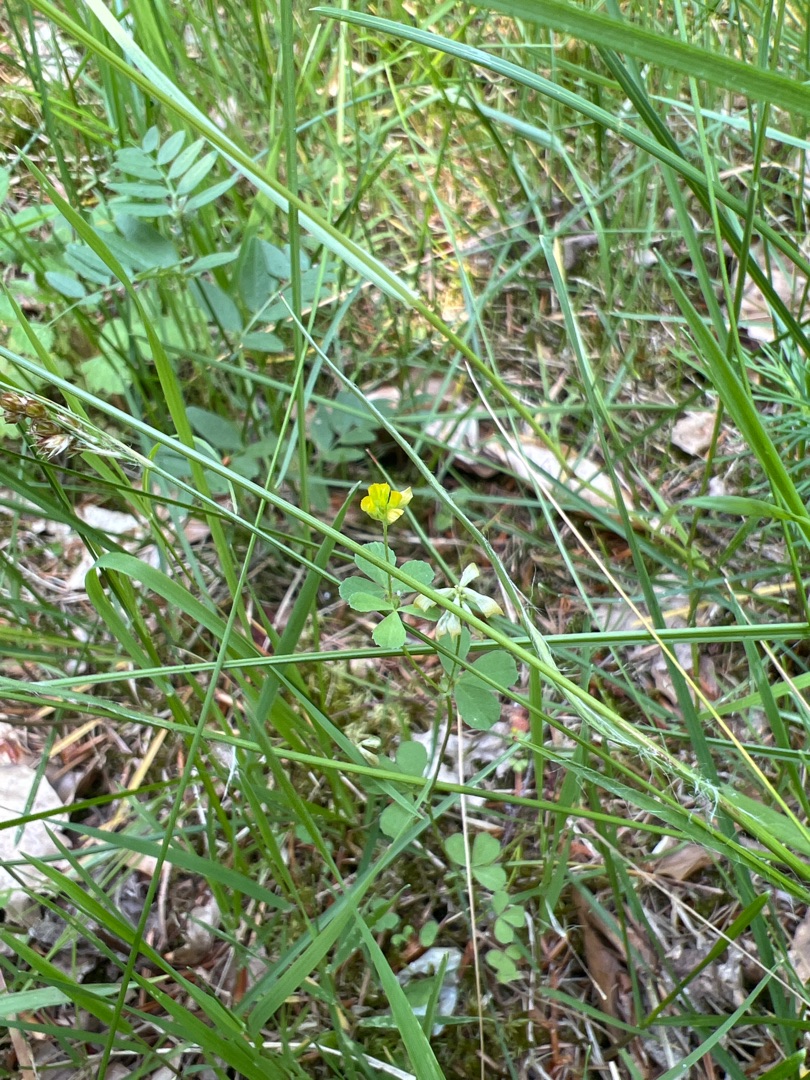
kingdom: Plantae
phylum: Tracheophyta
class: Magnoliopsida
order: Fabales
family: Fabaceae
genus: Trifolium
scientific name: Trifolium dubium
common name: Fin kløver
